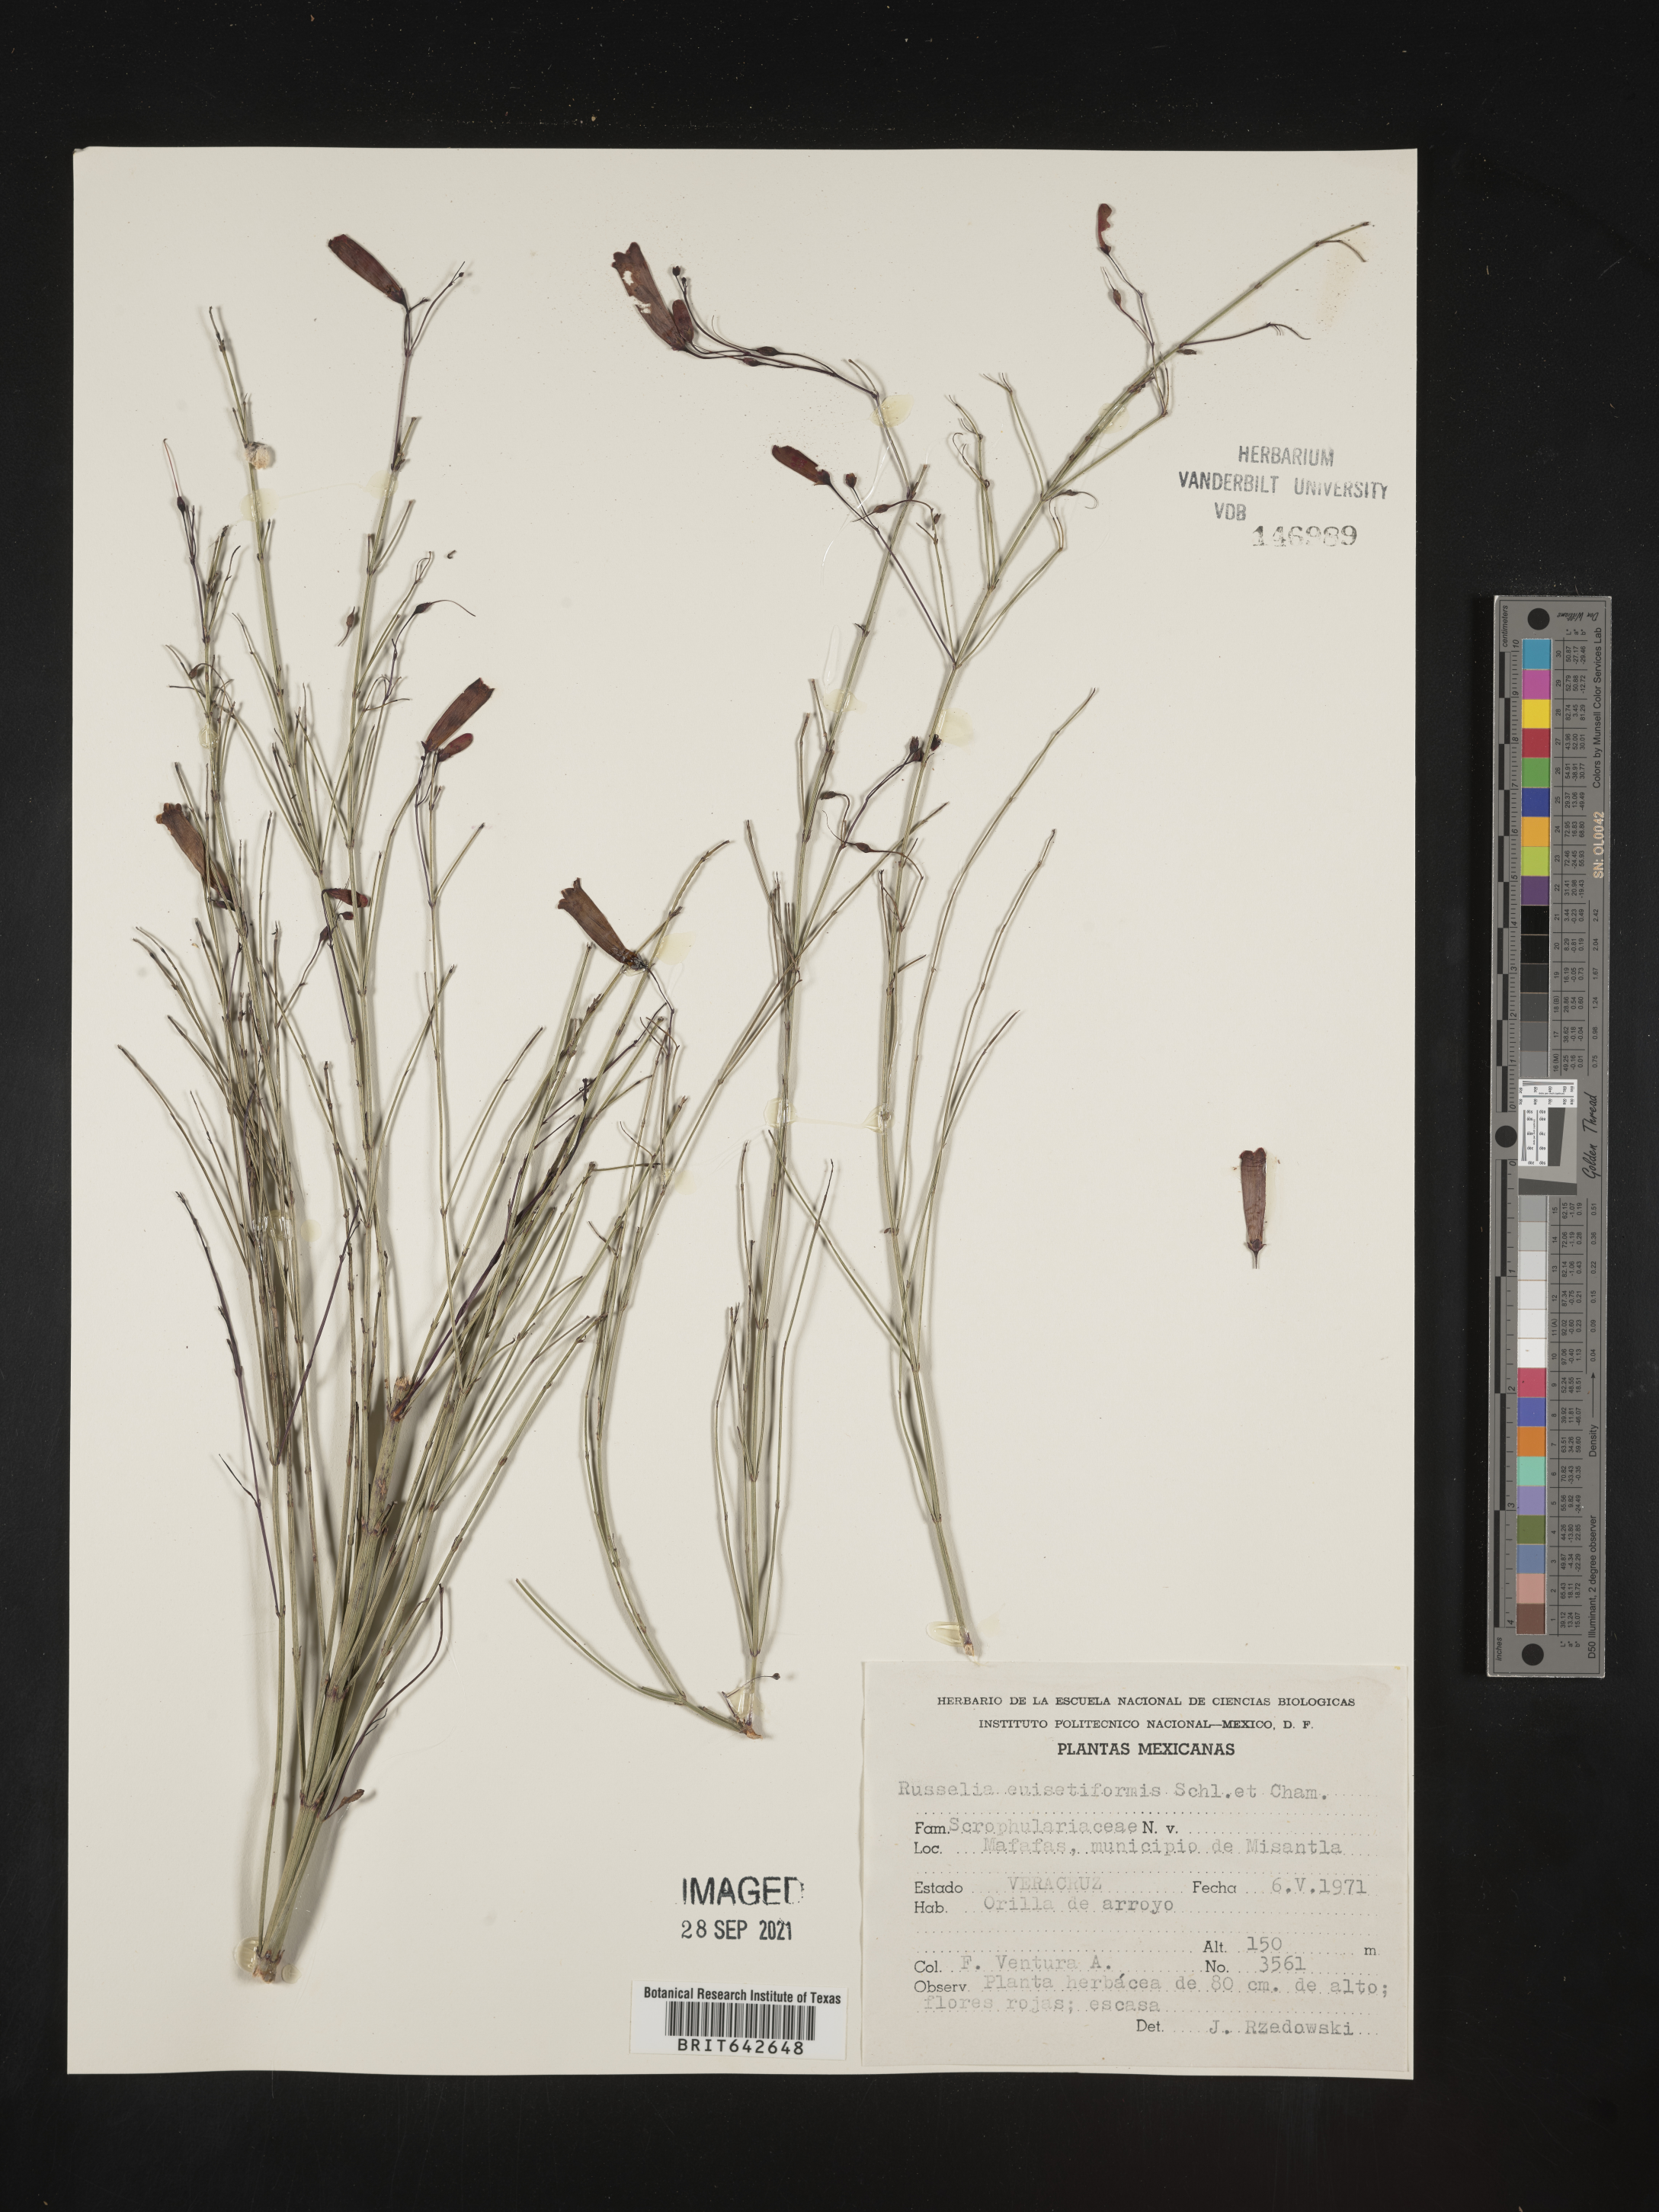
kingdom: Plantae
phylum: Tracheophyta
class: Magnoliopsida
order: Lamiales
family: Plantaginaceae
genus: Russelia
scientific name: Russelia
